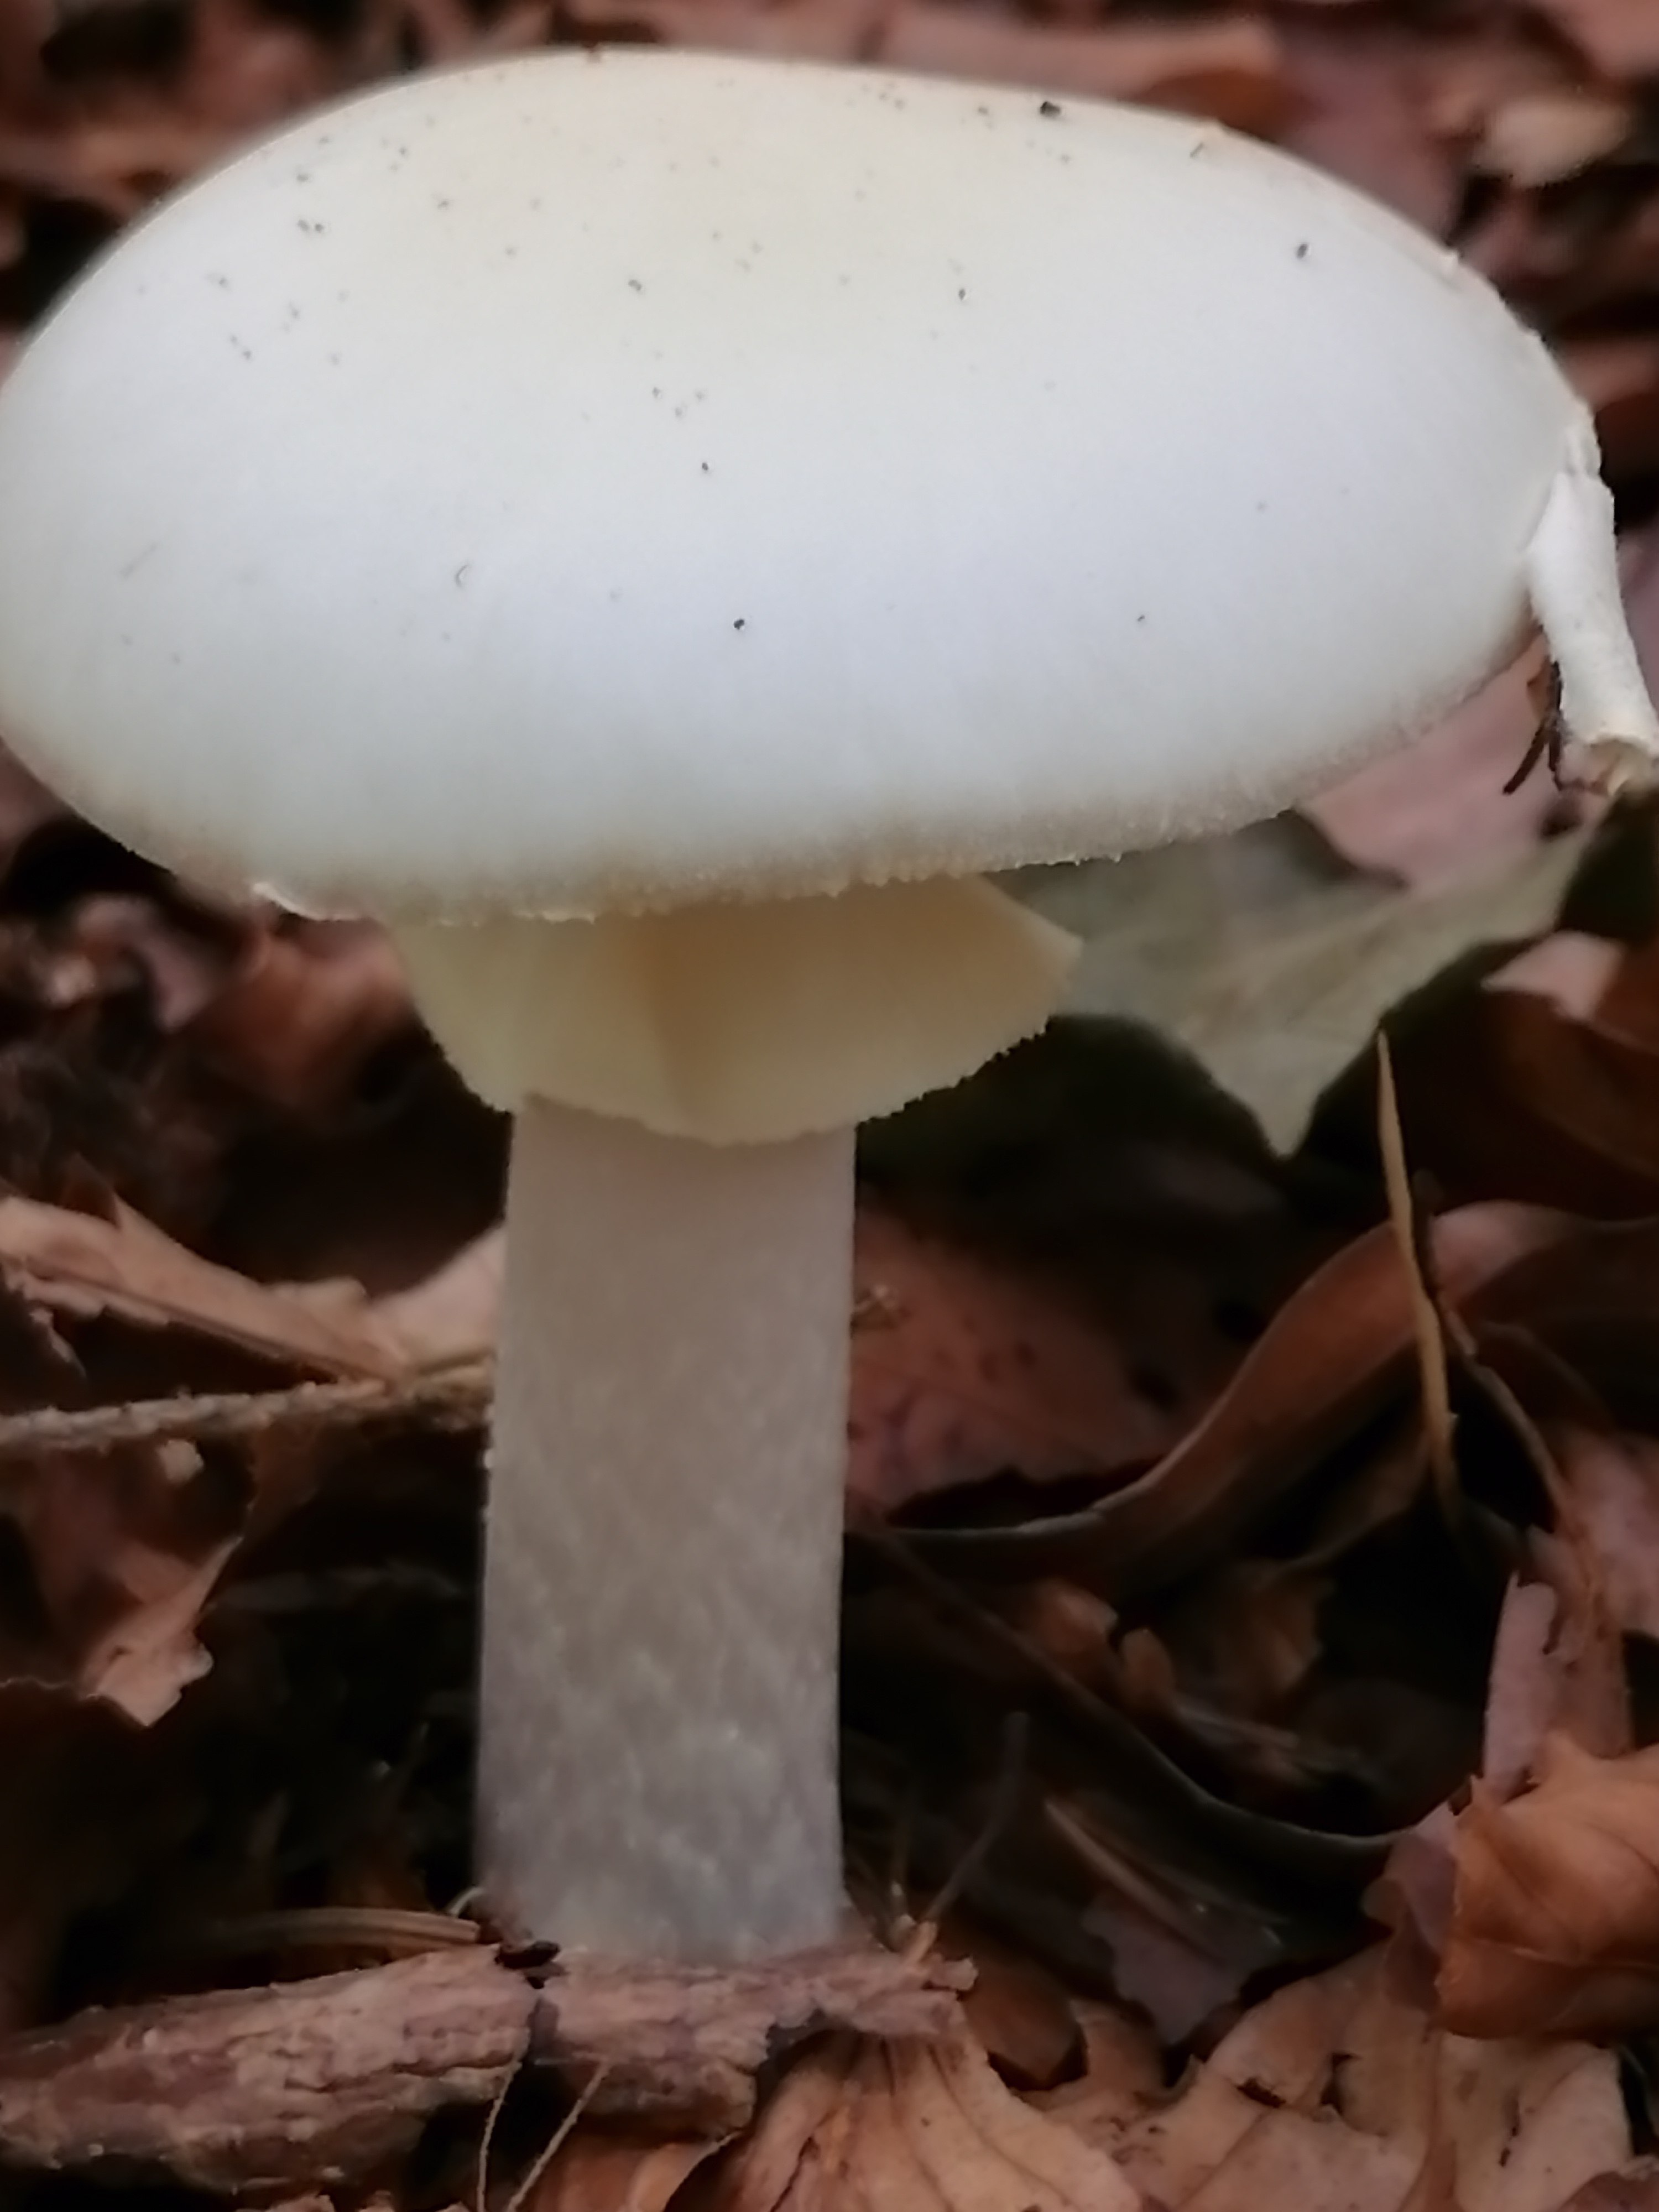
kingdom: Fungi
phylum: Basidiomycota
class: Agaricomycetes
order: Agaricales
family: Amanitaceae
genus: Amanita
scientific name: Amanita virosa
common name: snehvid fluesvamp
